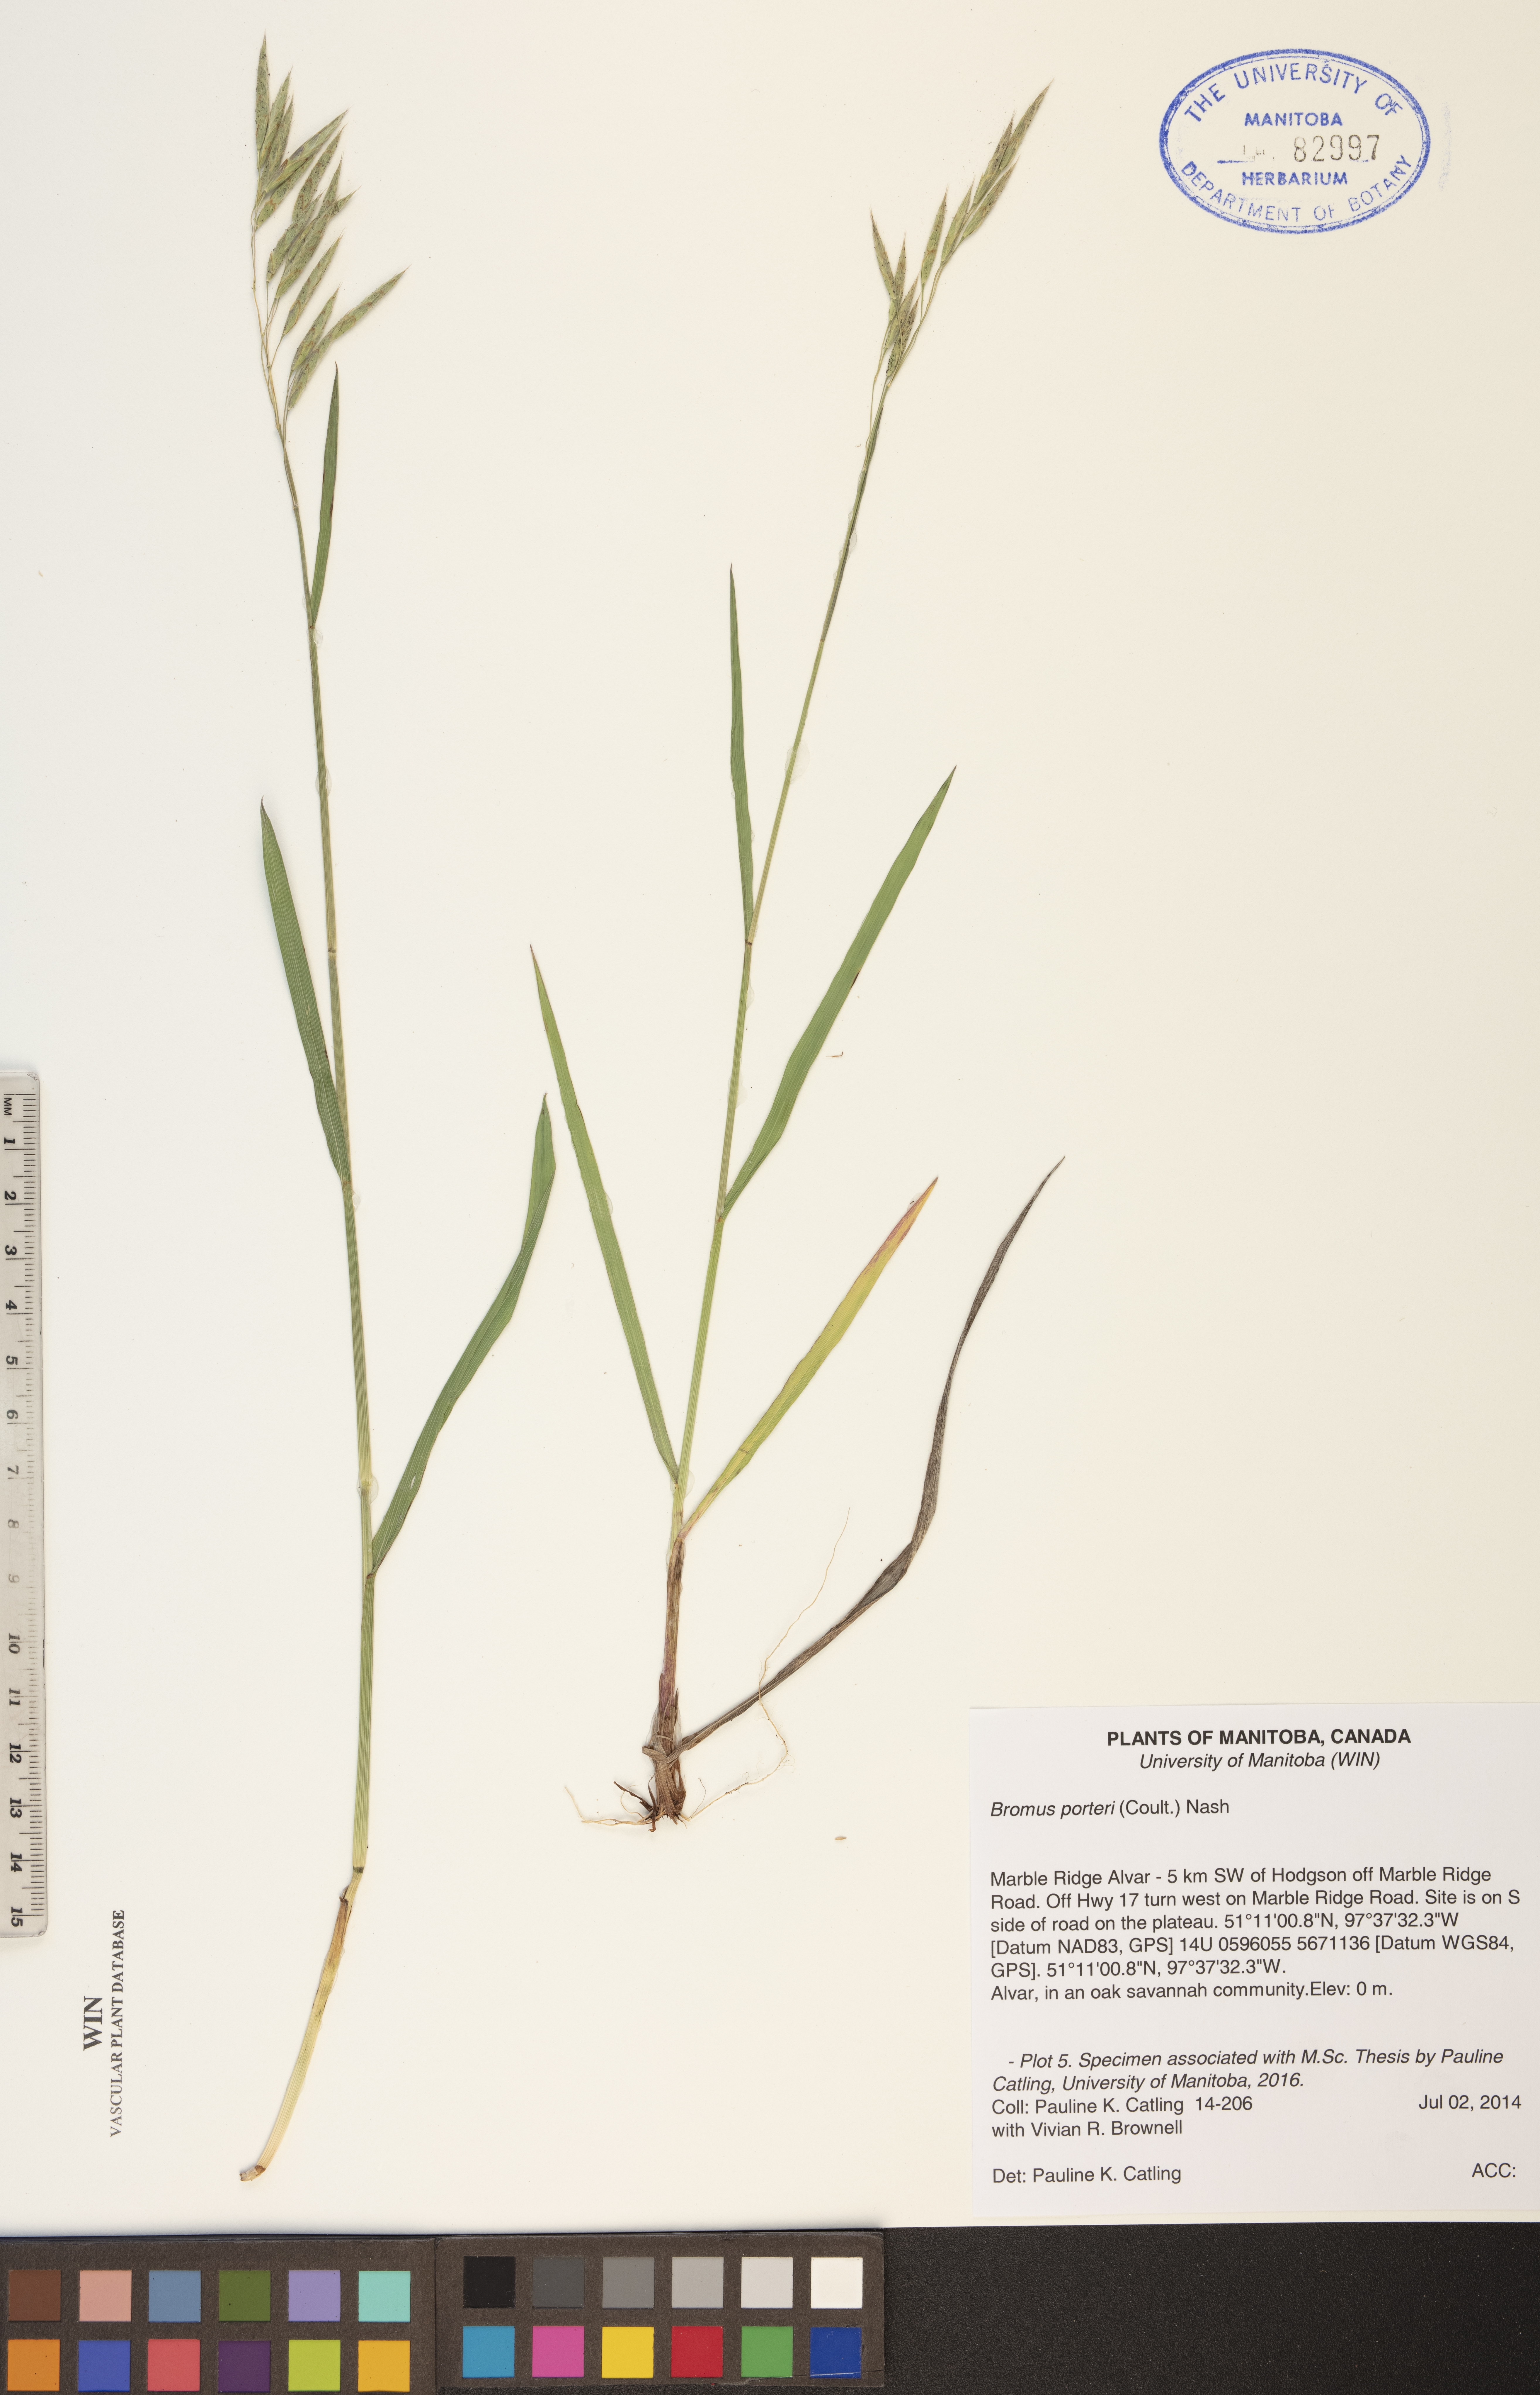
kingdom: Plantae
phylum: Tracheophyta
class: Liliopsida
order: Poales
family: Poaceae
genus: Bromus
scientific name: Bromus porteri
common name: Nodding brome
